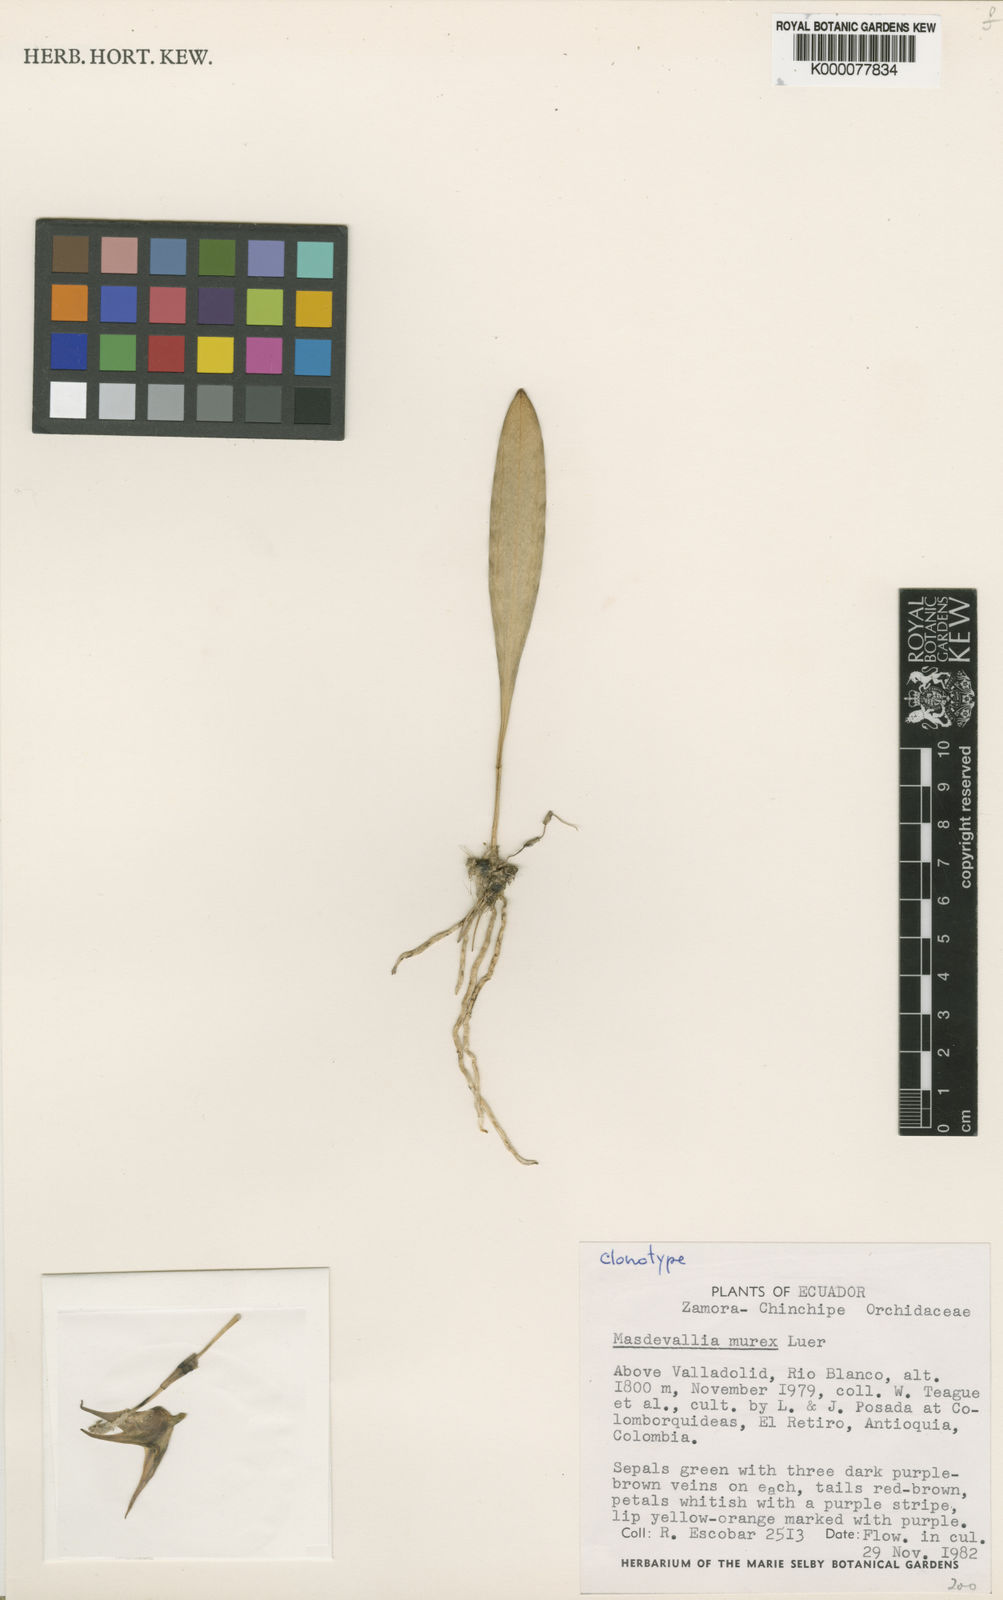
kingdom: Plantae
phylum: Tracheophyta
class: Liliopsida
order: Asparagales
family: Orchidaceae
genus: Masdevallia
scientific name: Masdevallia murex
